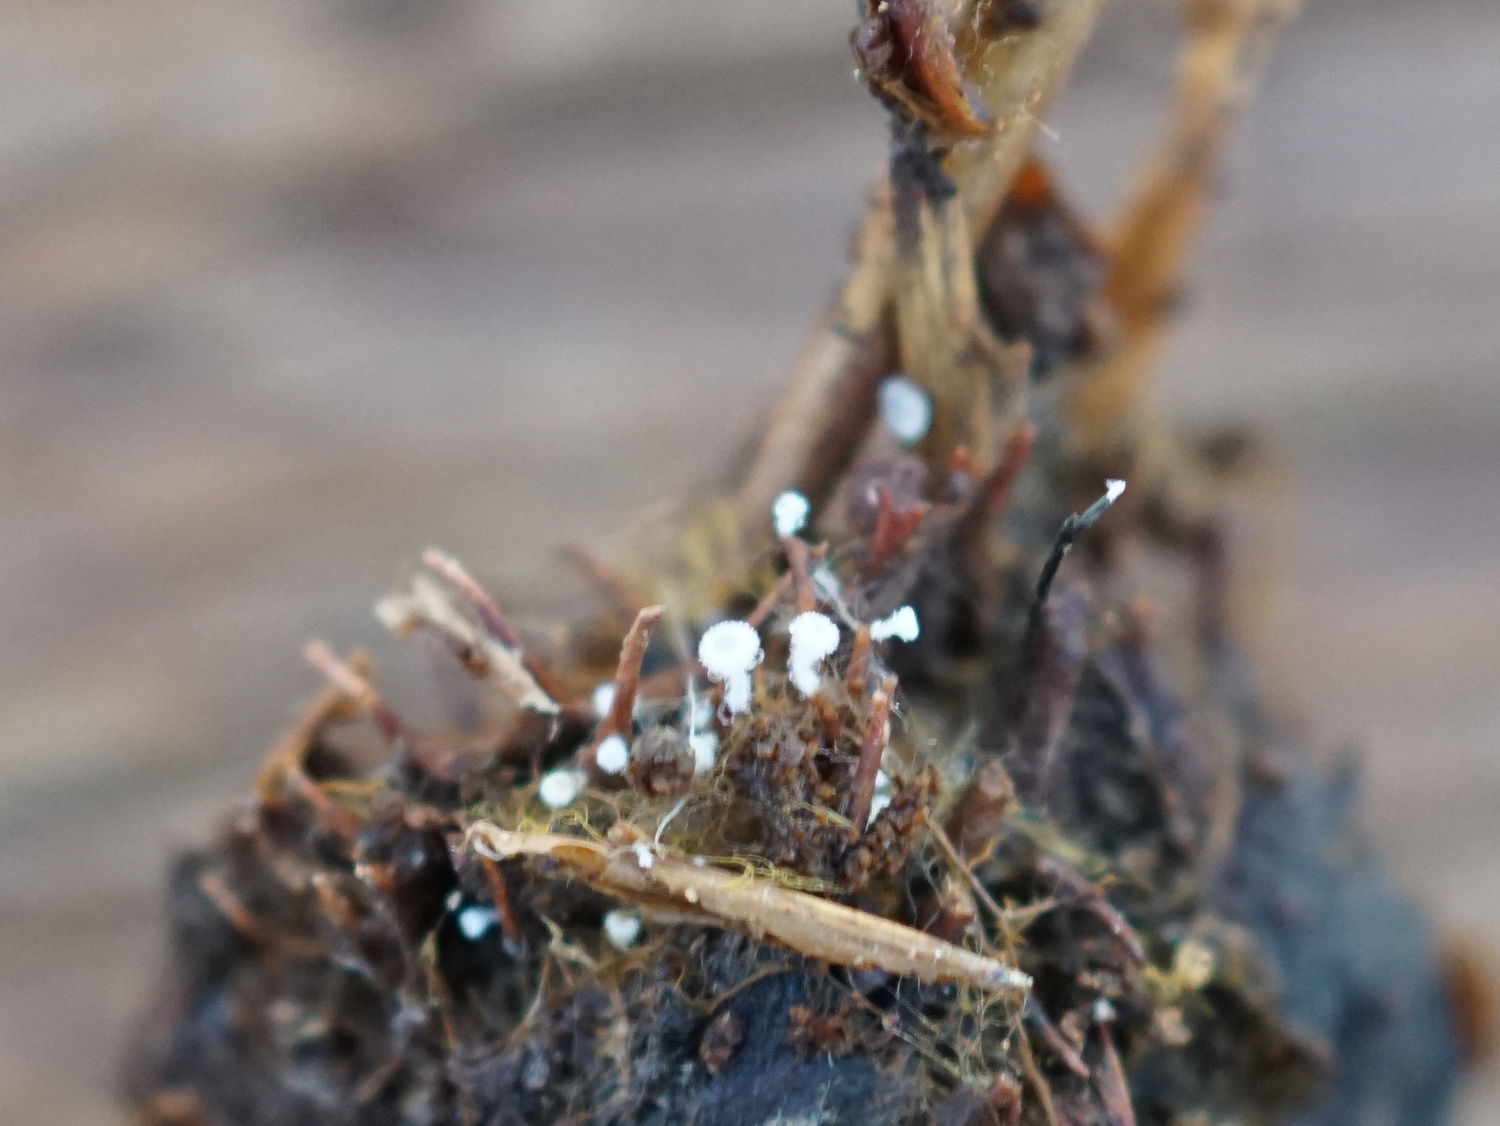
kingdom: Fungi
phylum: Ascomycota
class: Leotiomycetes
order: Helotiales
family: Lachnaceae
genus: Lachnum
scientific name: Lachnum virgineum
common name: jomfru-frynseskive
